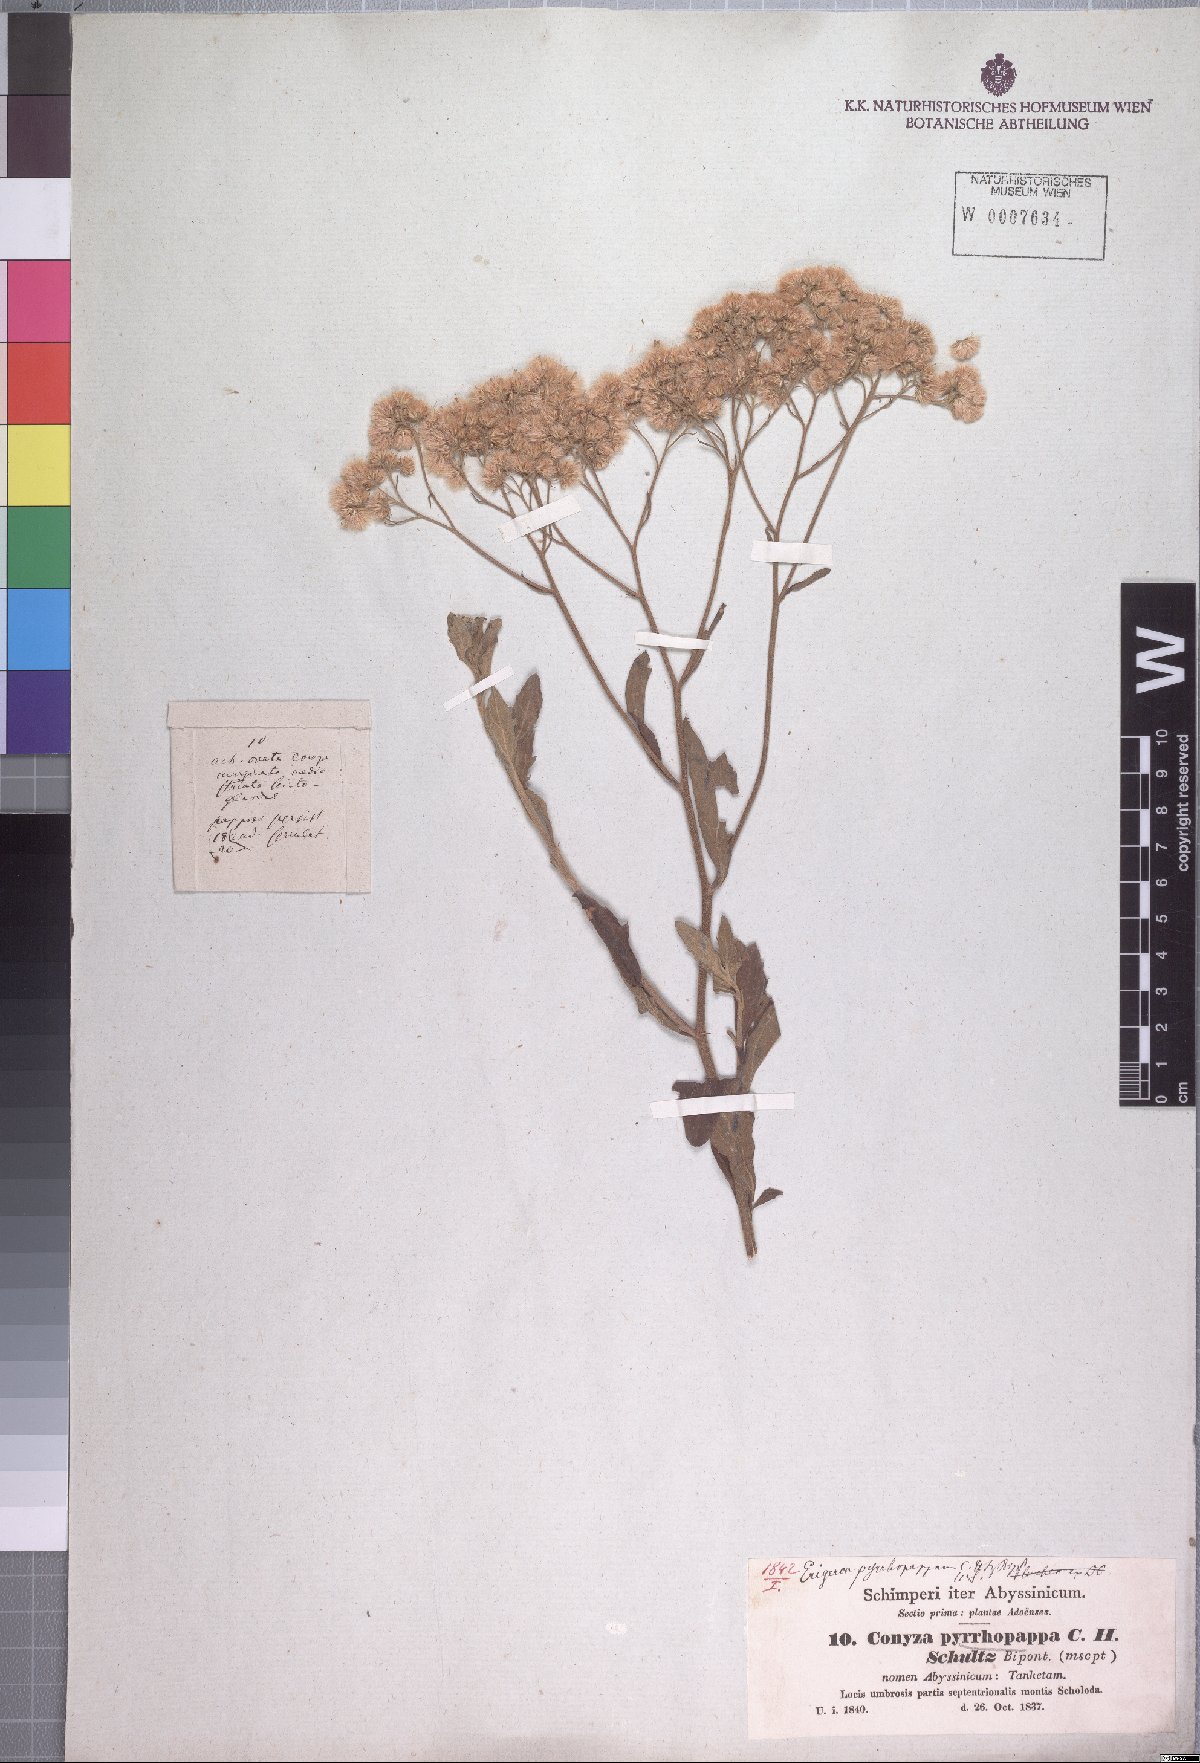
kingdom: Plantae
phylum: Tracheophyta
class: Magnoliopsida
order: Asterales
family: Asteraceae
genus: Microglossa
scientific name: Microglossa pyrrhopappa
